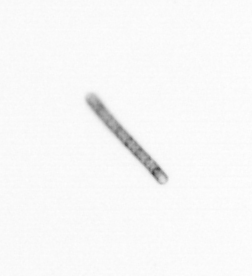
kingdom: Chromista
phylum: Ochrophyta
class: Bacillariophyceae
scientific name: Bacillariophyceae
